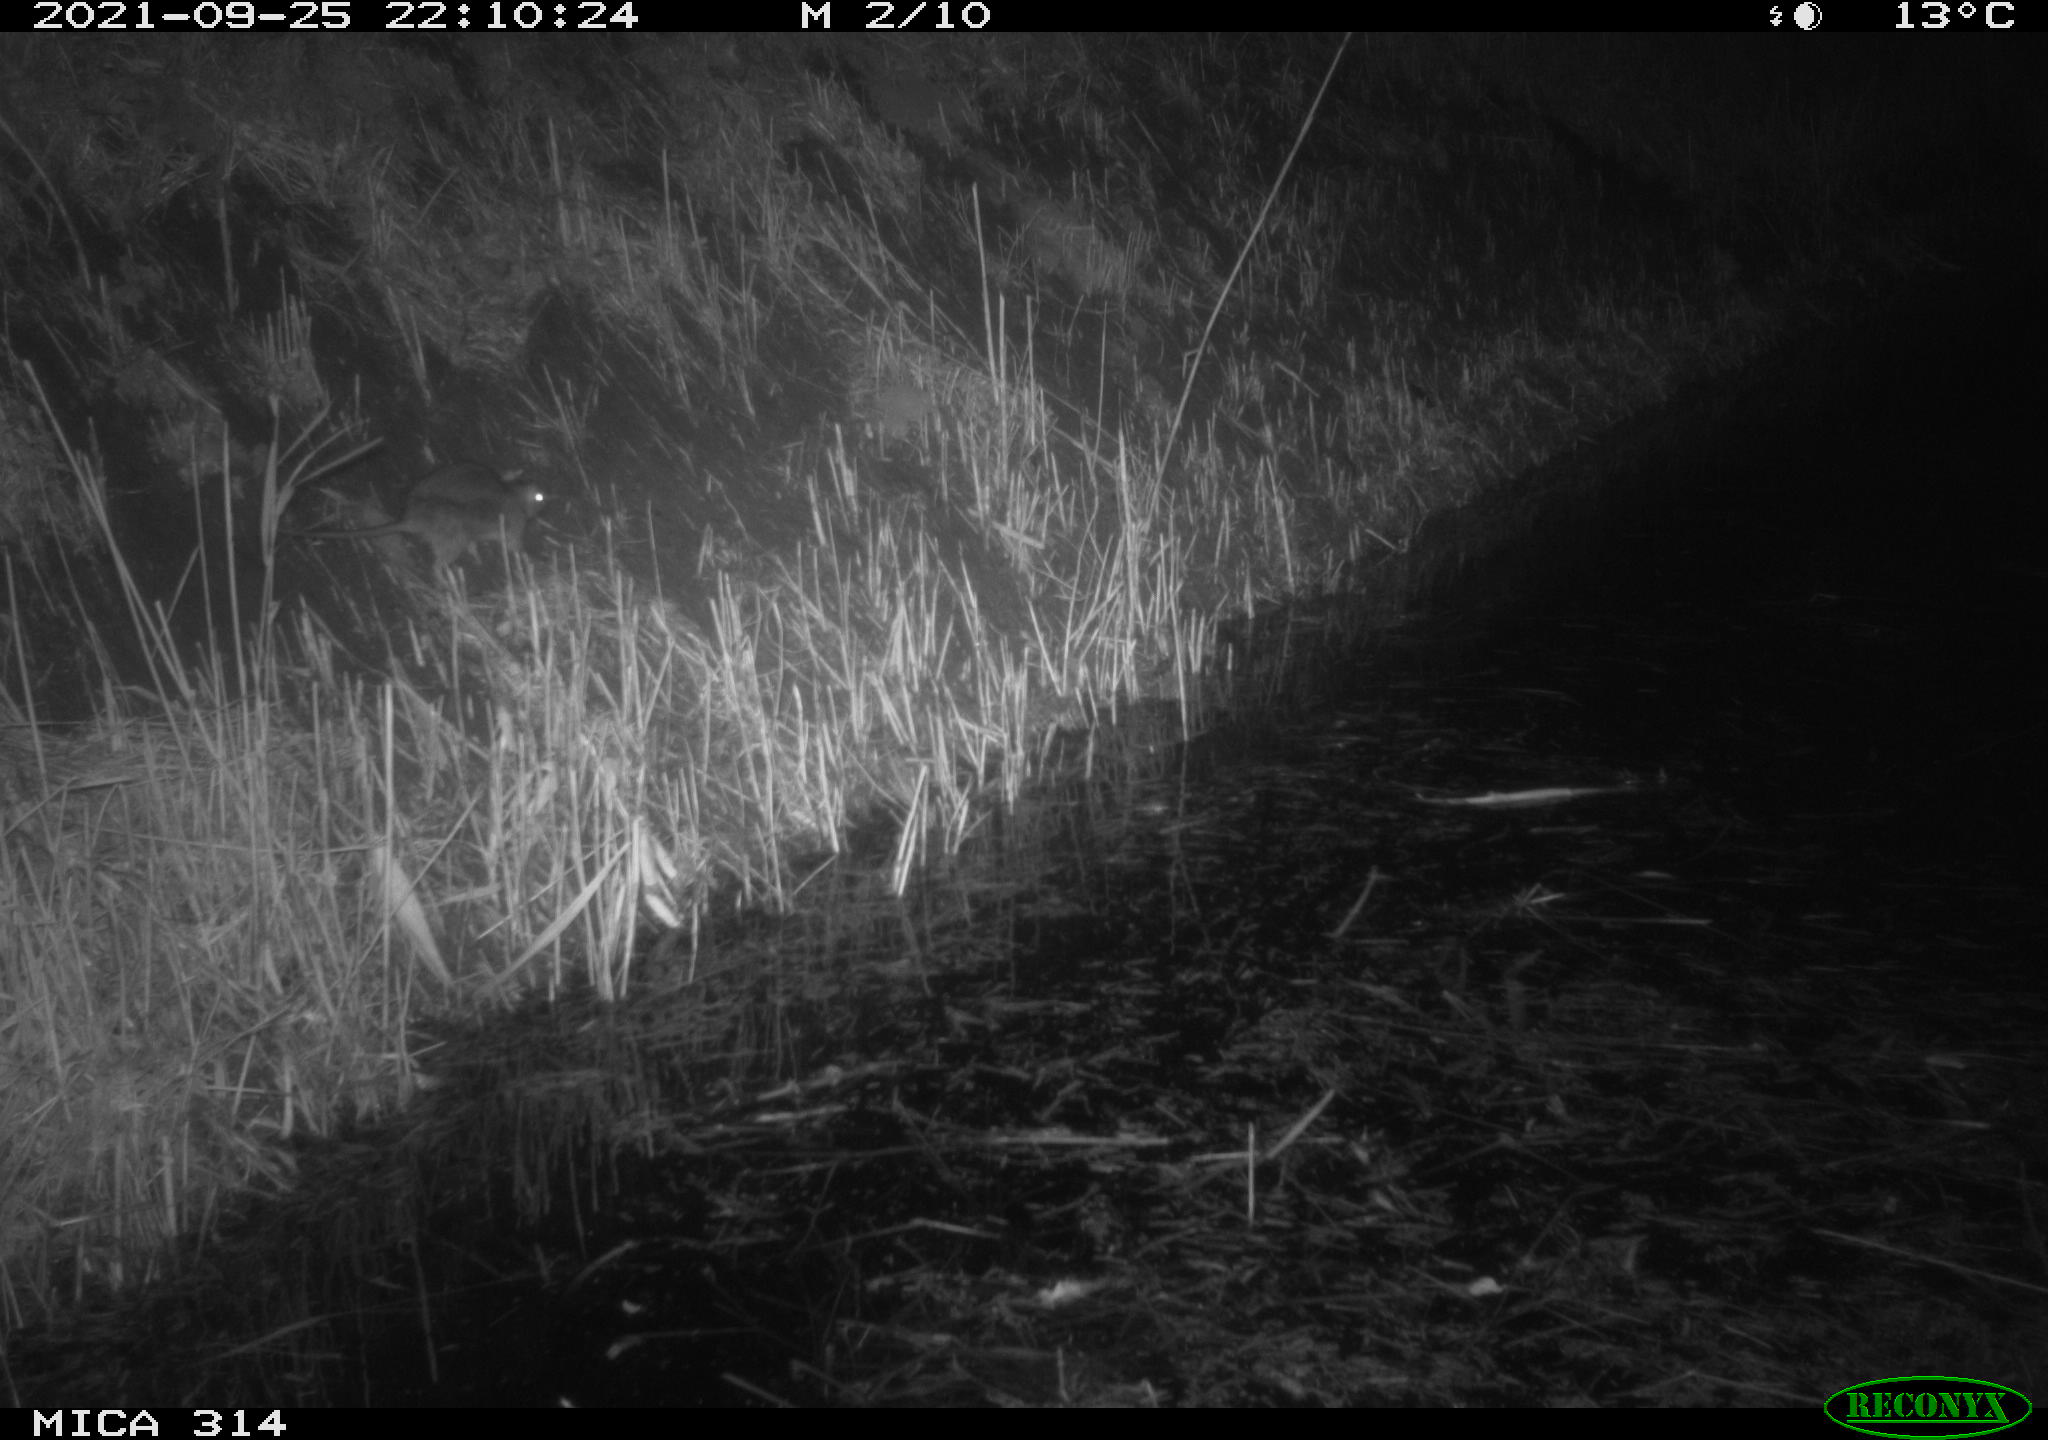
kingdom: Animalia
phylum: Chordata
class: Mammalia
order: Rodentia
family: Muridae
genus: Rattus
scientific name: Rattus norvegicus
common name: Brown rat
